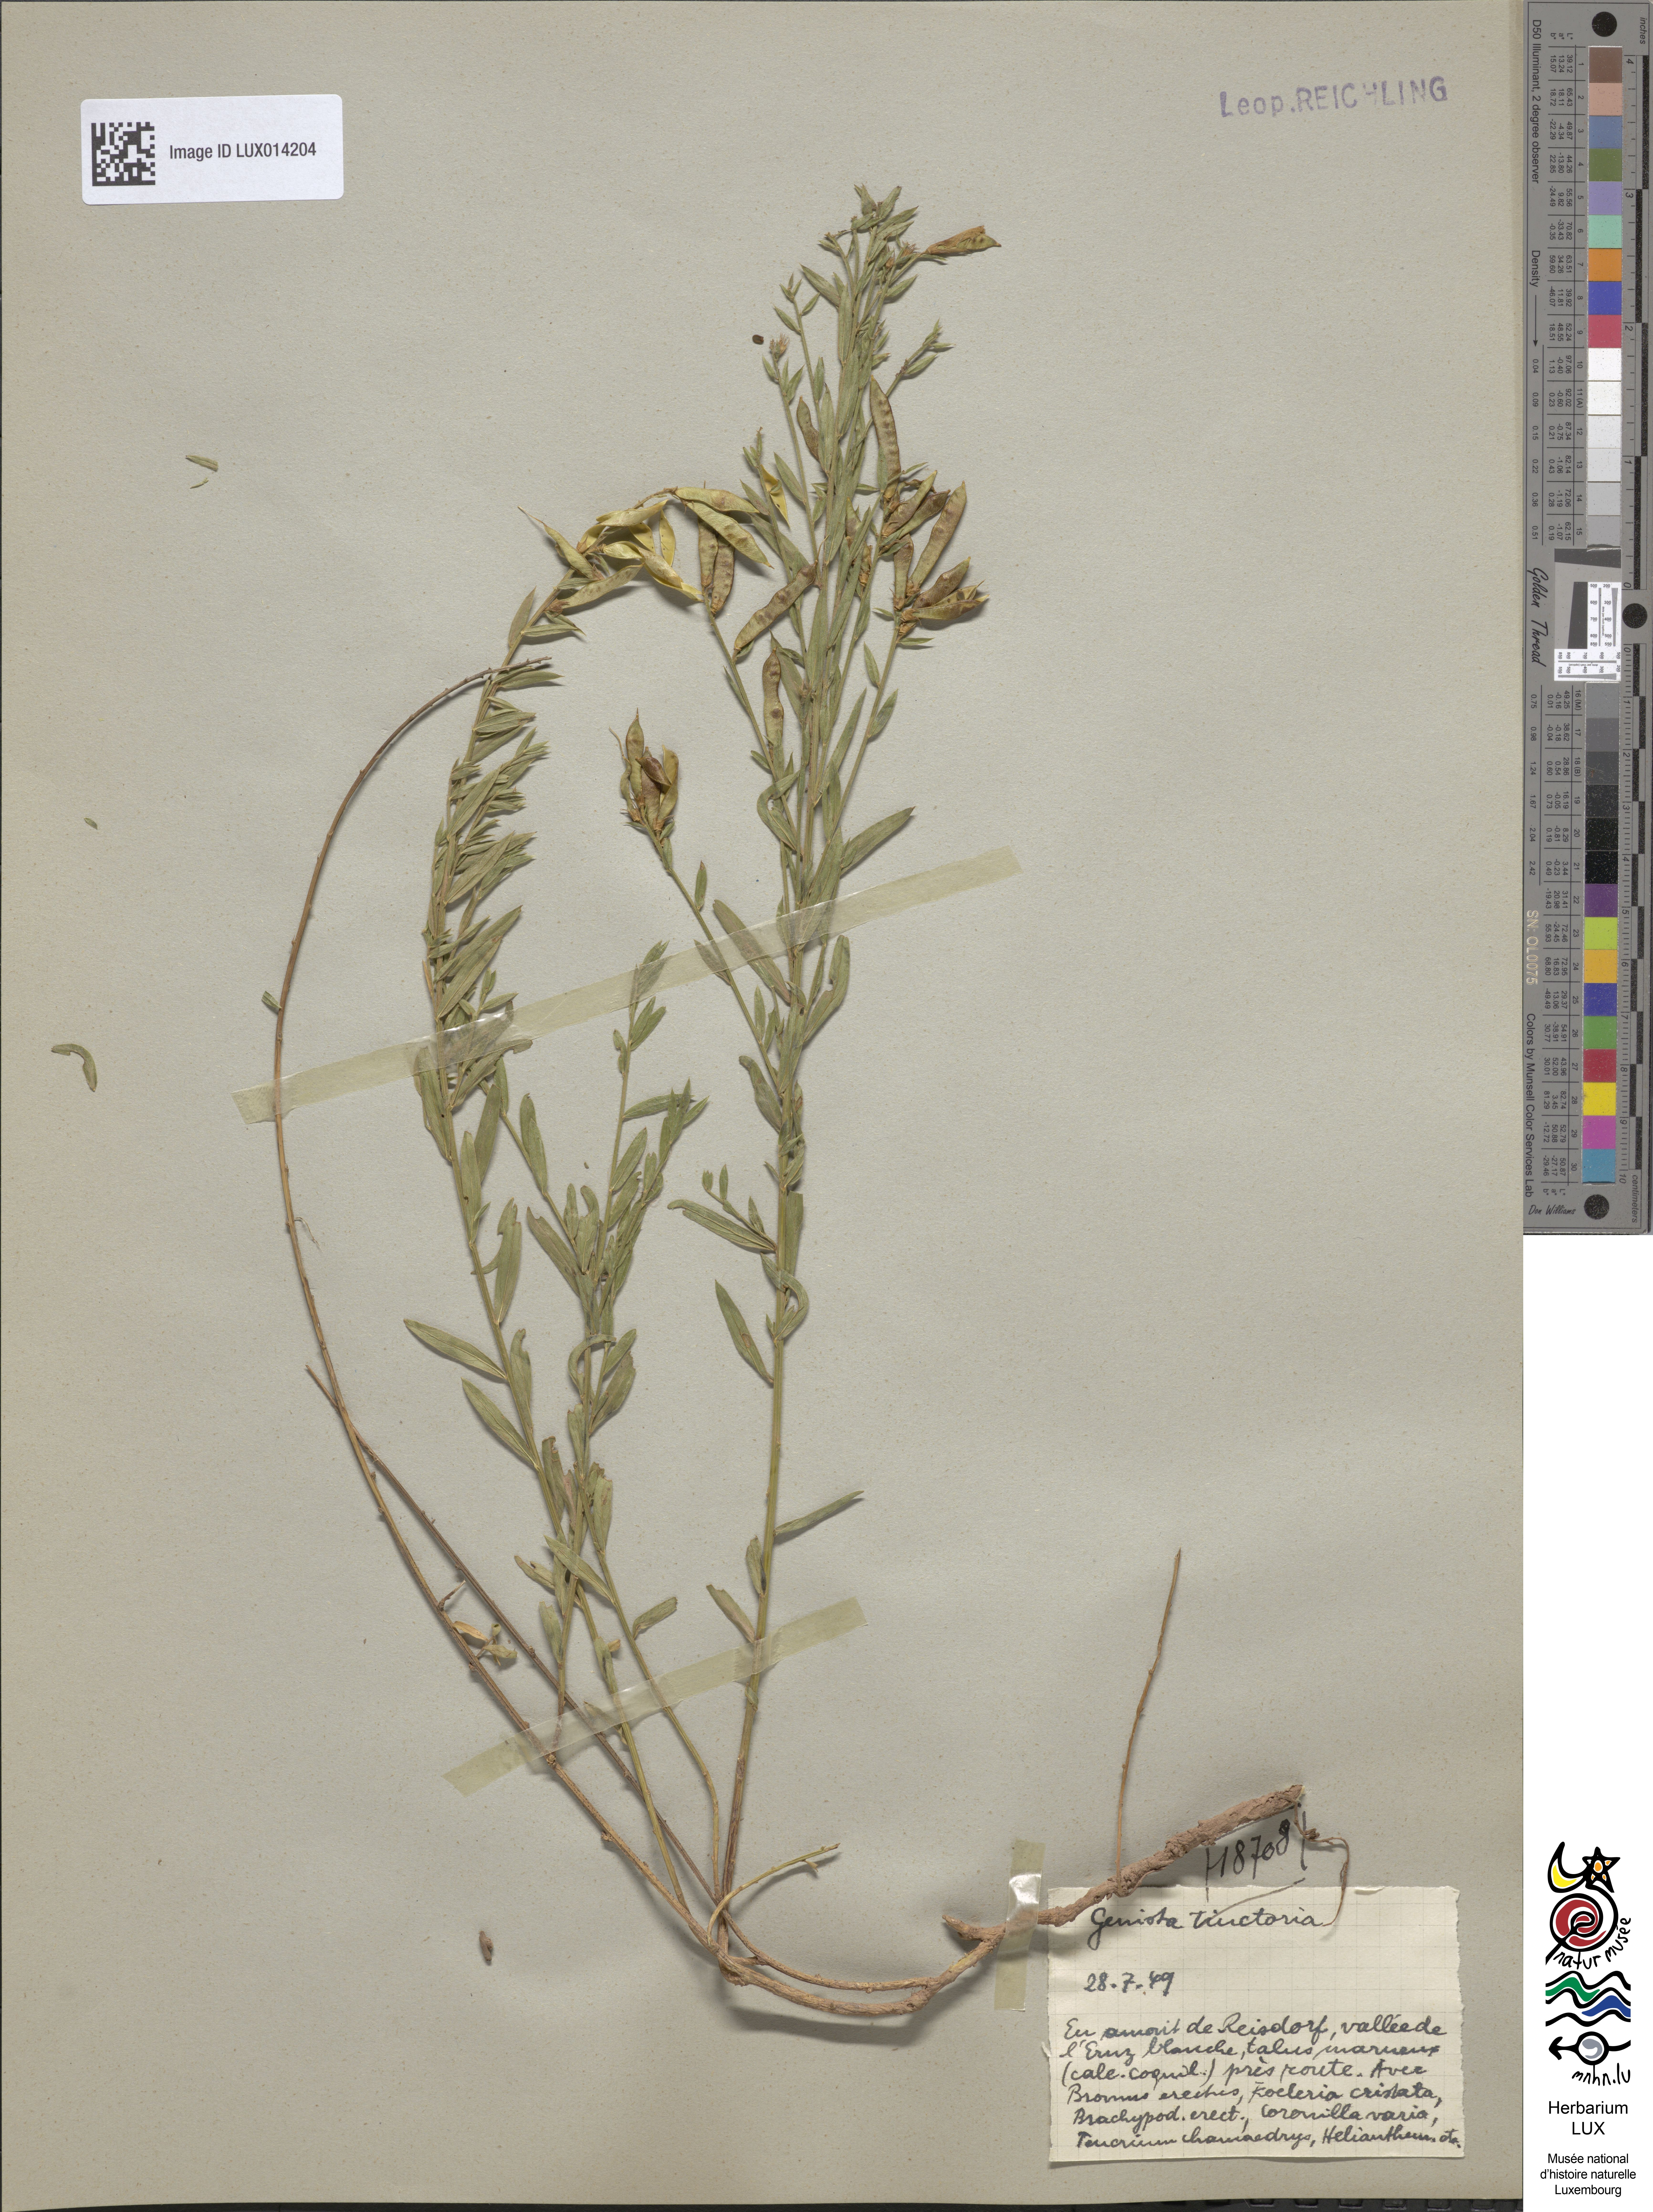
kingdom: Plantae
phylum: Tracheophyta
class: Magnoliopsida
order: Fabales
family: Fabaceae
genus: Genista
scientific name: Genista tinctoria
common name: Dyer's greenweed
